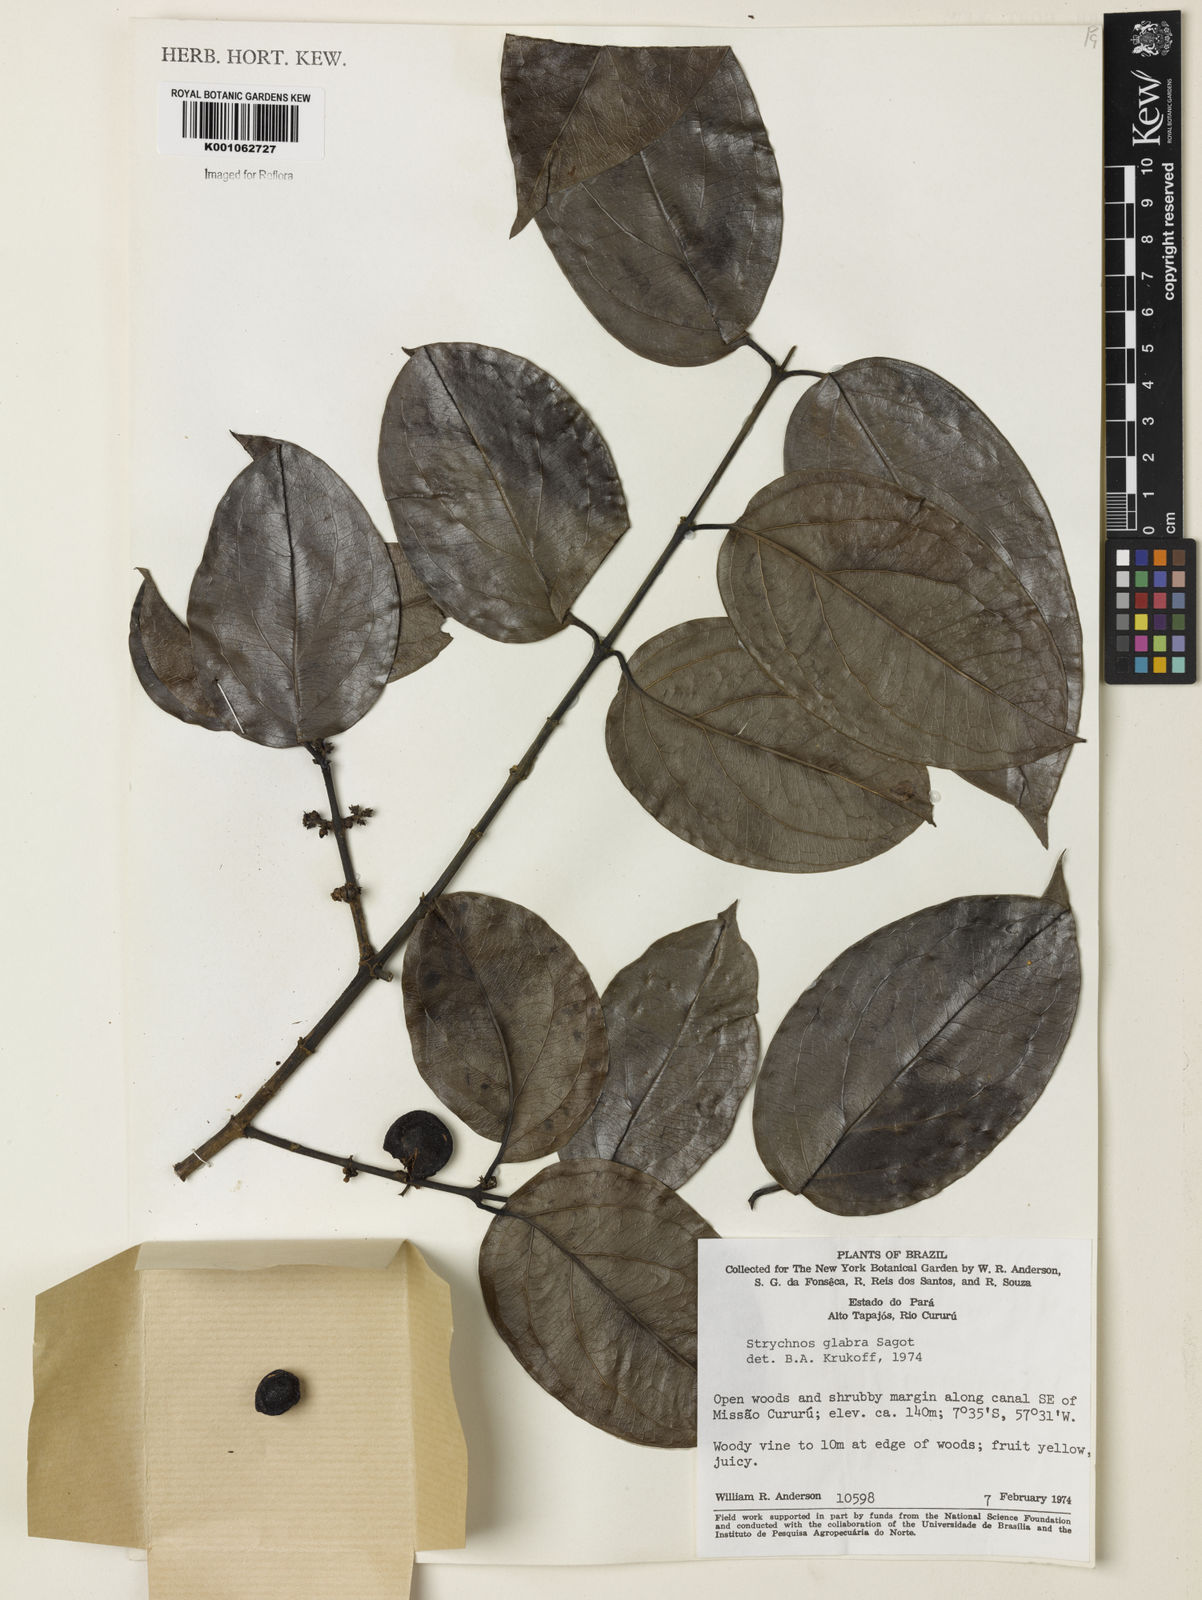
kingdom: Plantae
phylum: Tracheophyta
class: Magnoliopsida
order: Gentianales
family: Loganiaceae
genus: Strychnos
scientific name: Strychnos glabra
